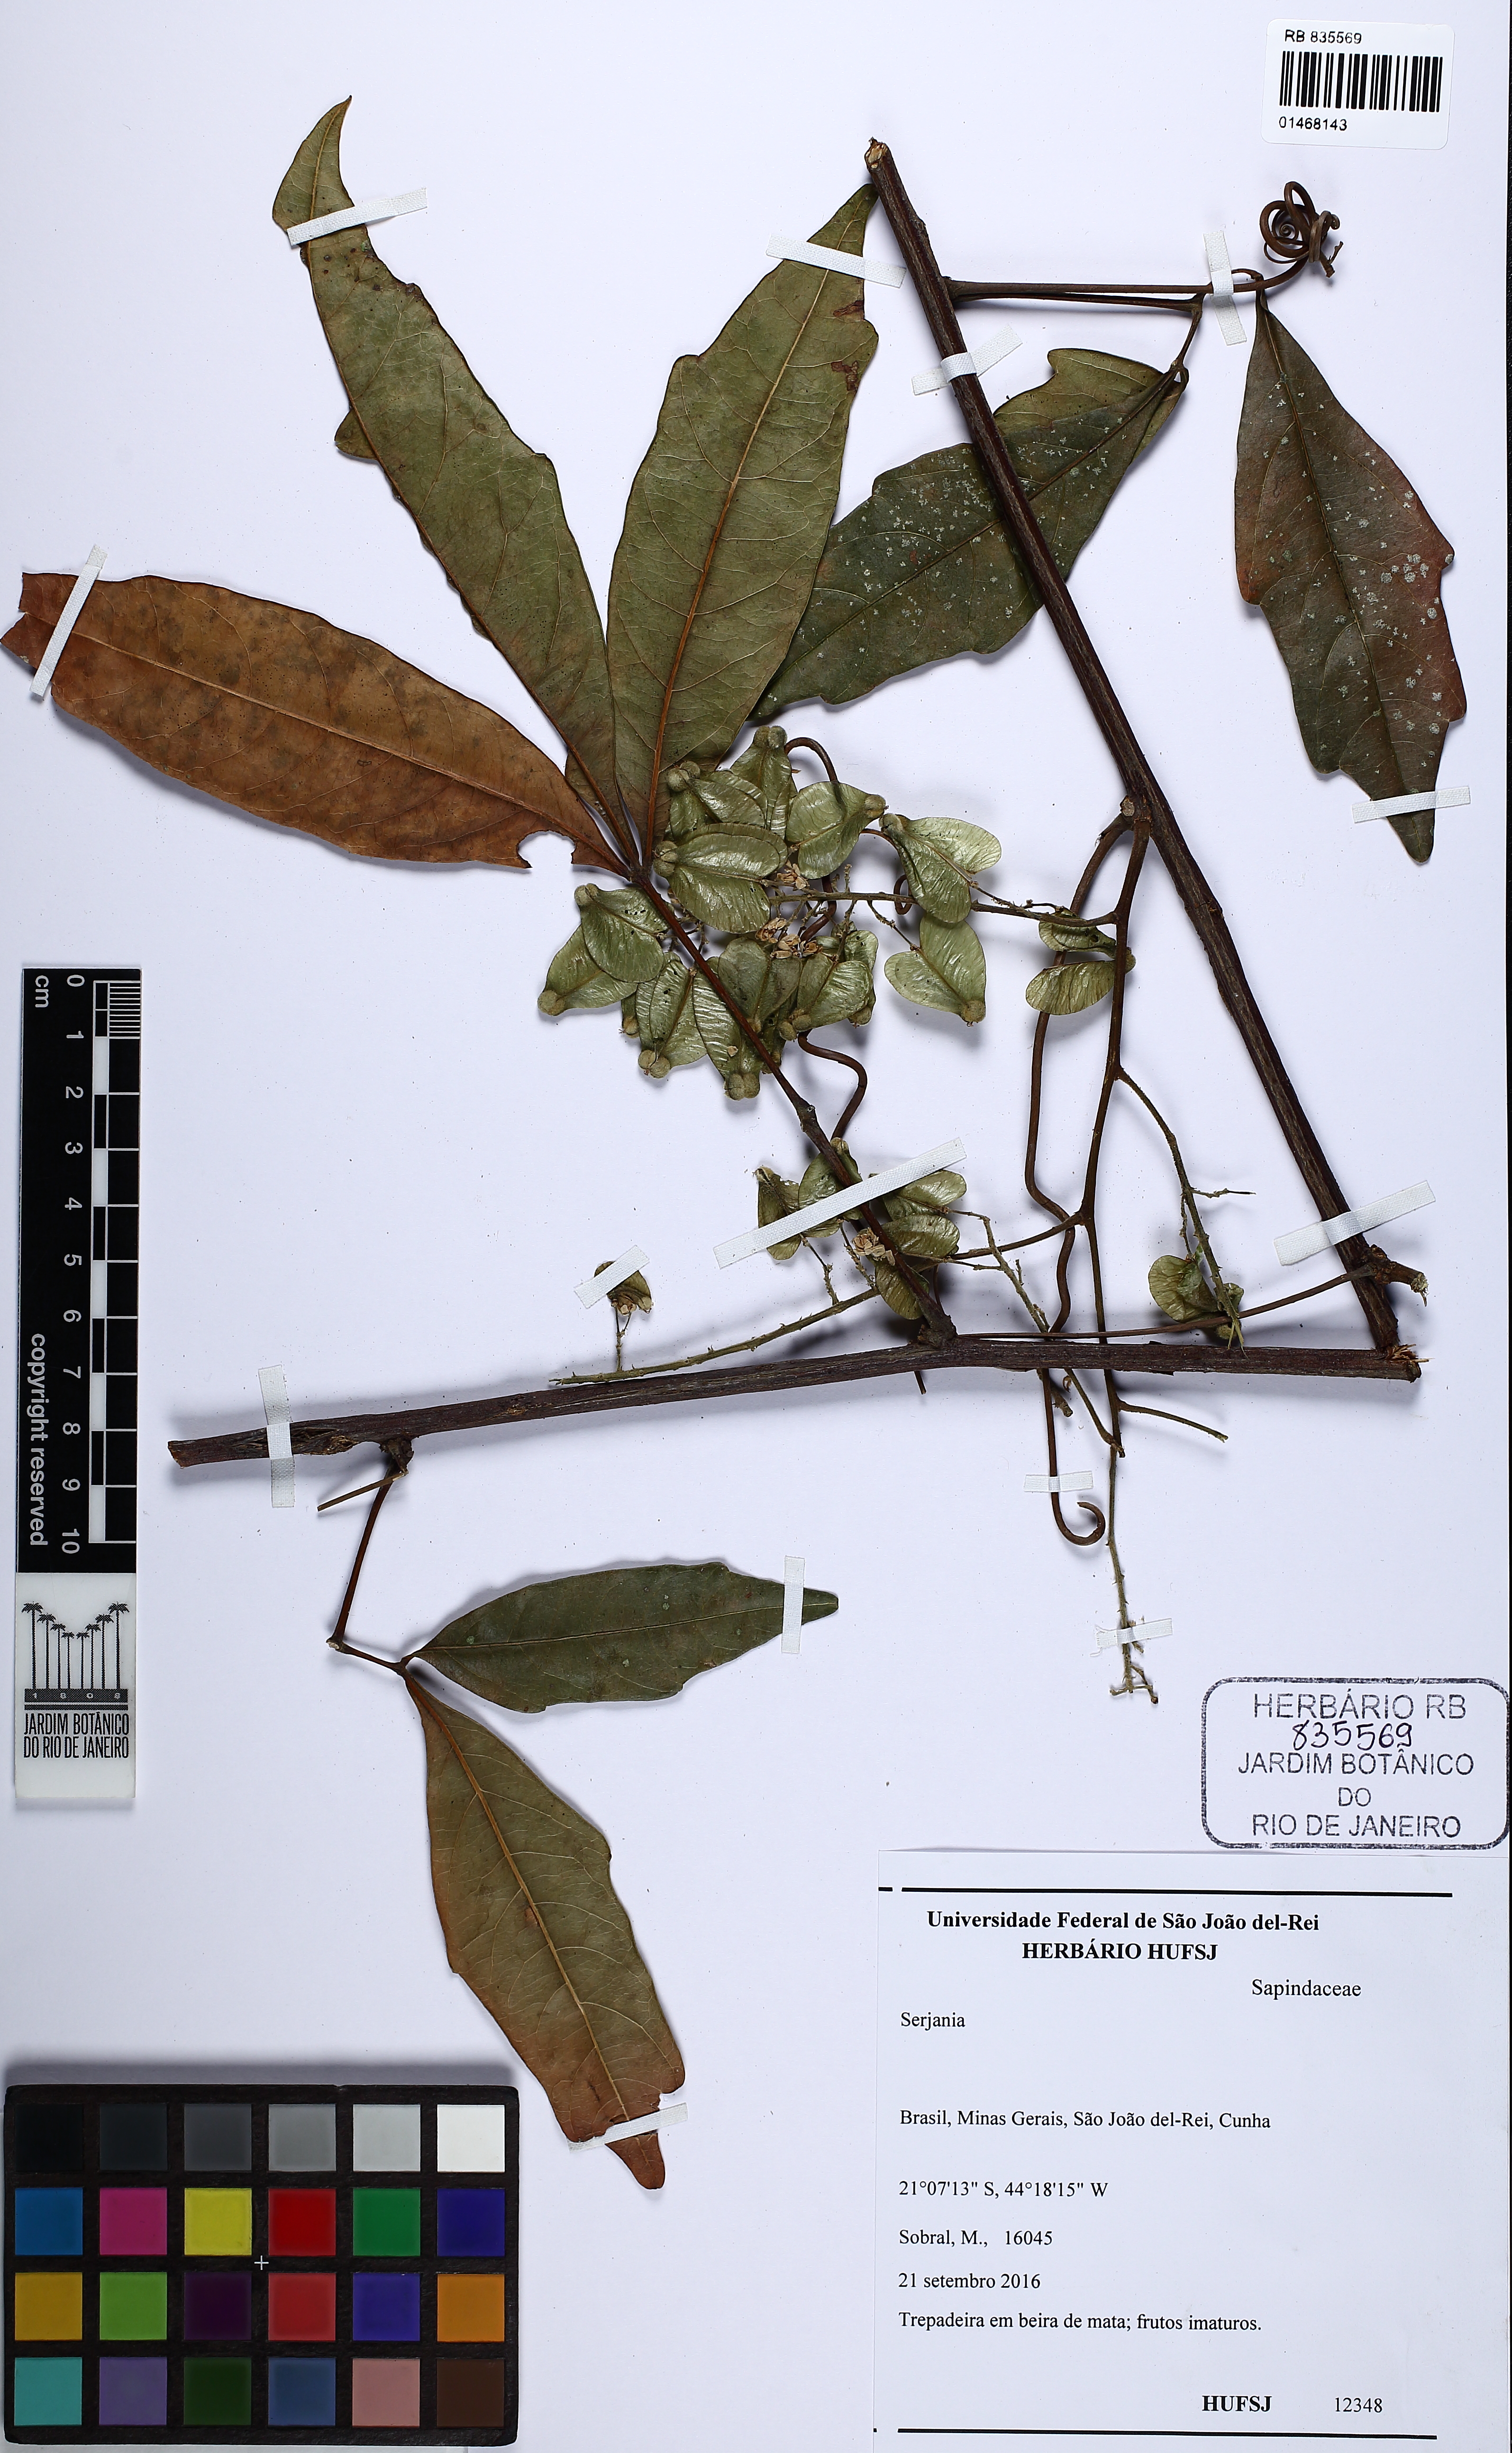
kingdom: Plantae
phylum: Tracheophyta
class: Magnoliopsida
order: Sapindales
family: Sapindaceae
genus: Serjania
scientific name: Serjania
